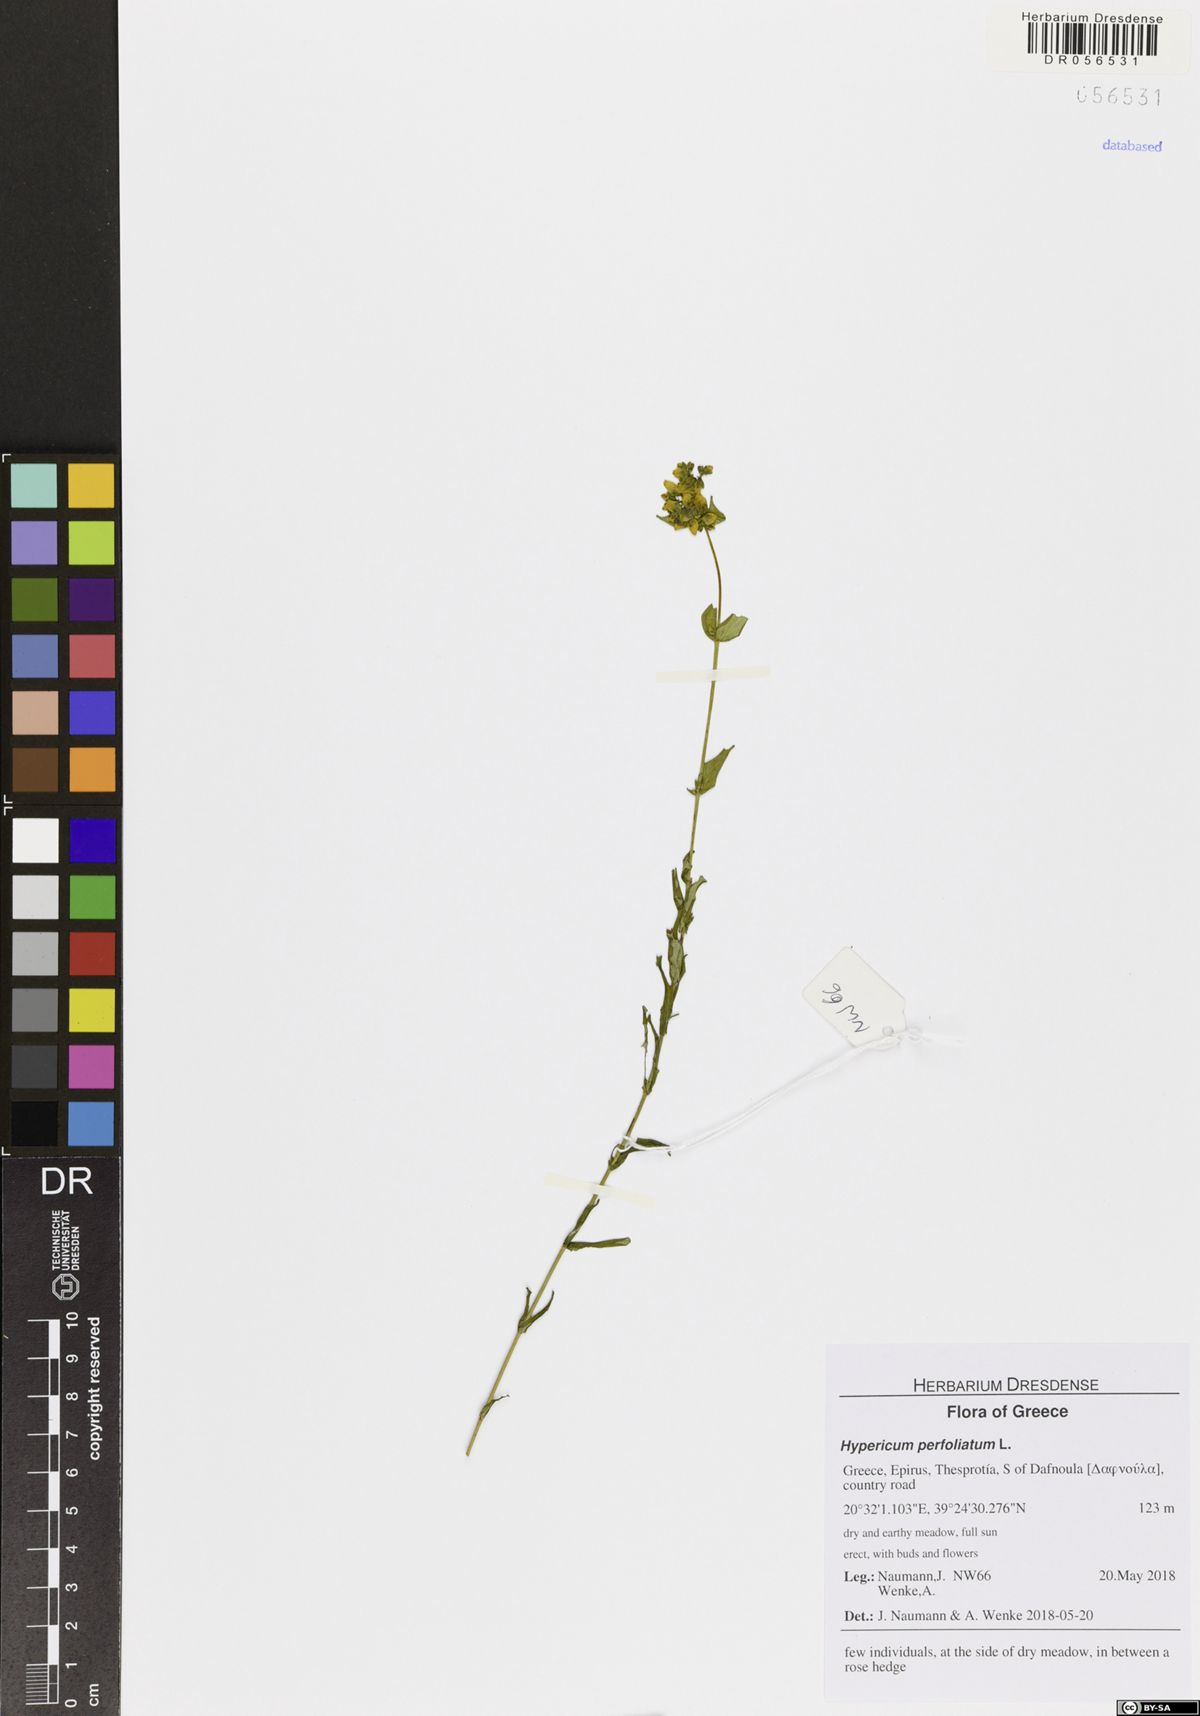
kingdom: Plantae
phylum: Tracheophyta
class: Magnoliopsida
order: Malpighiales
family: Hypericaceae
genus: Hypericum
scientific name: Hypericum perfoliatum
